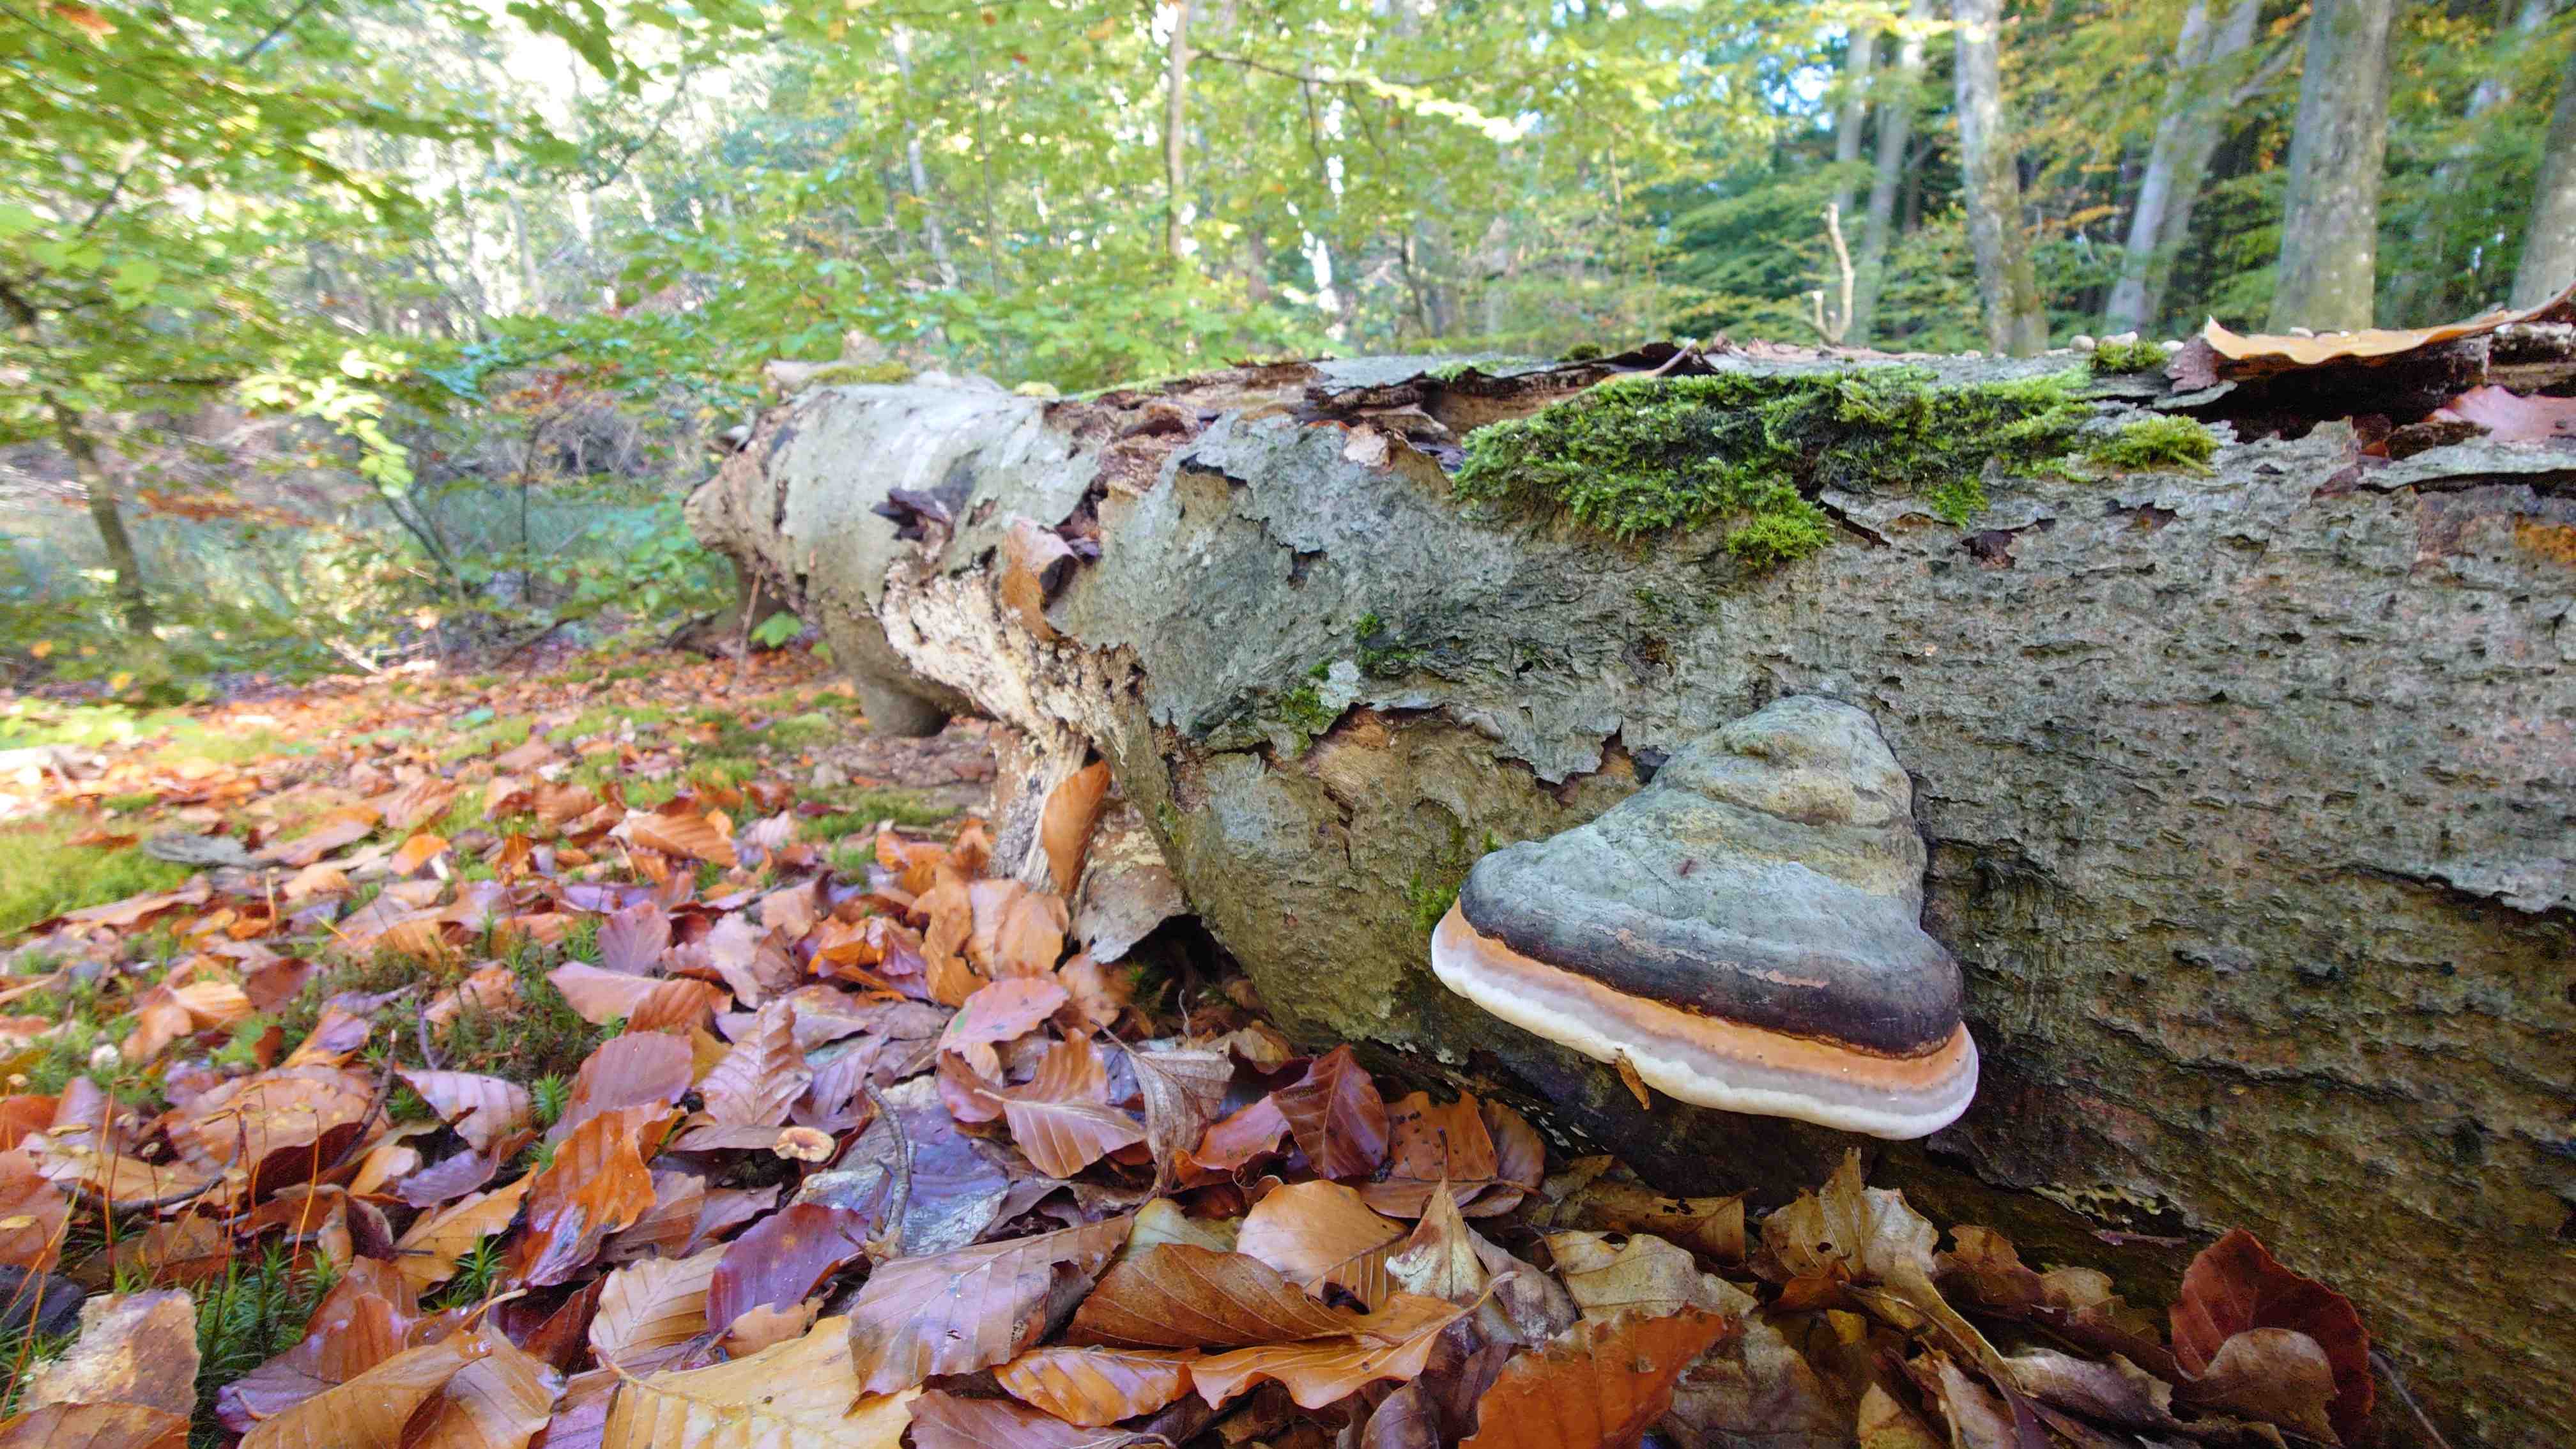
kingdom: Fungi
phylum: Basidiomycota
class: Agaricomycetes
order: Polyporales
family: Polyporaceae
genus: Fomes
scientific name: Fomes fomentarius
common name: tøndersvamp
